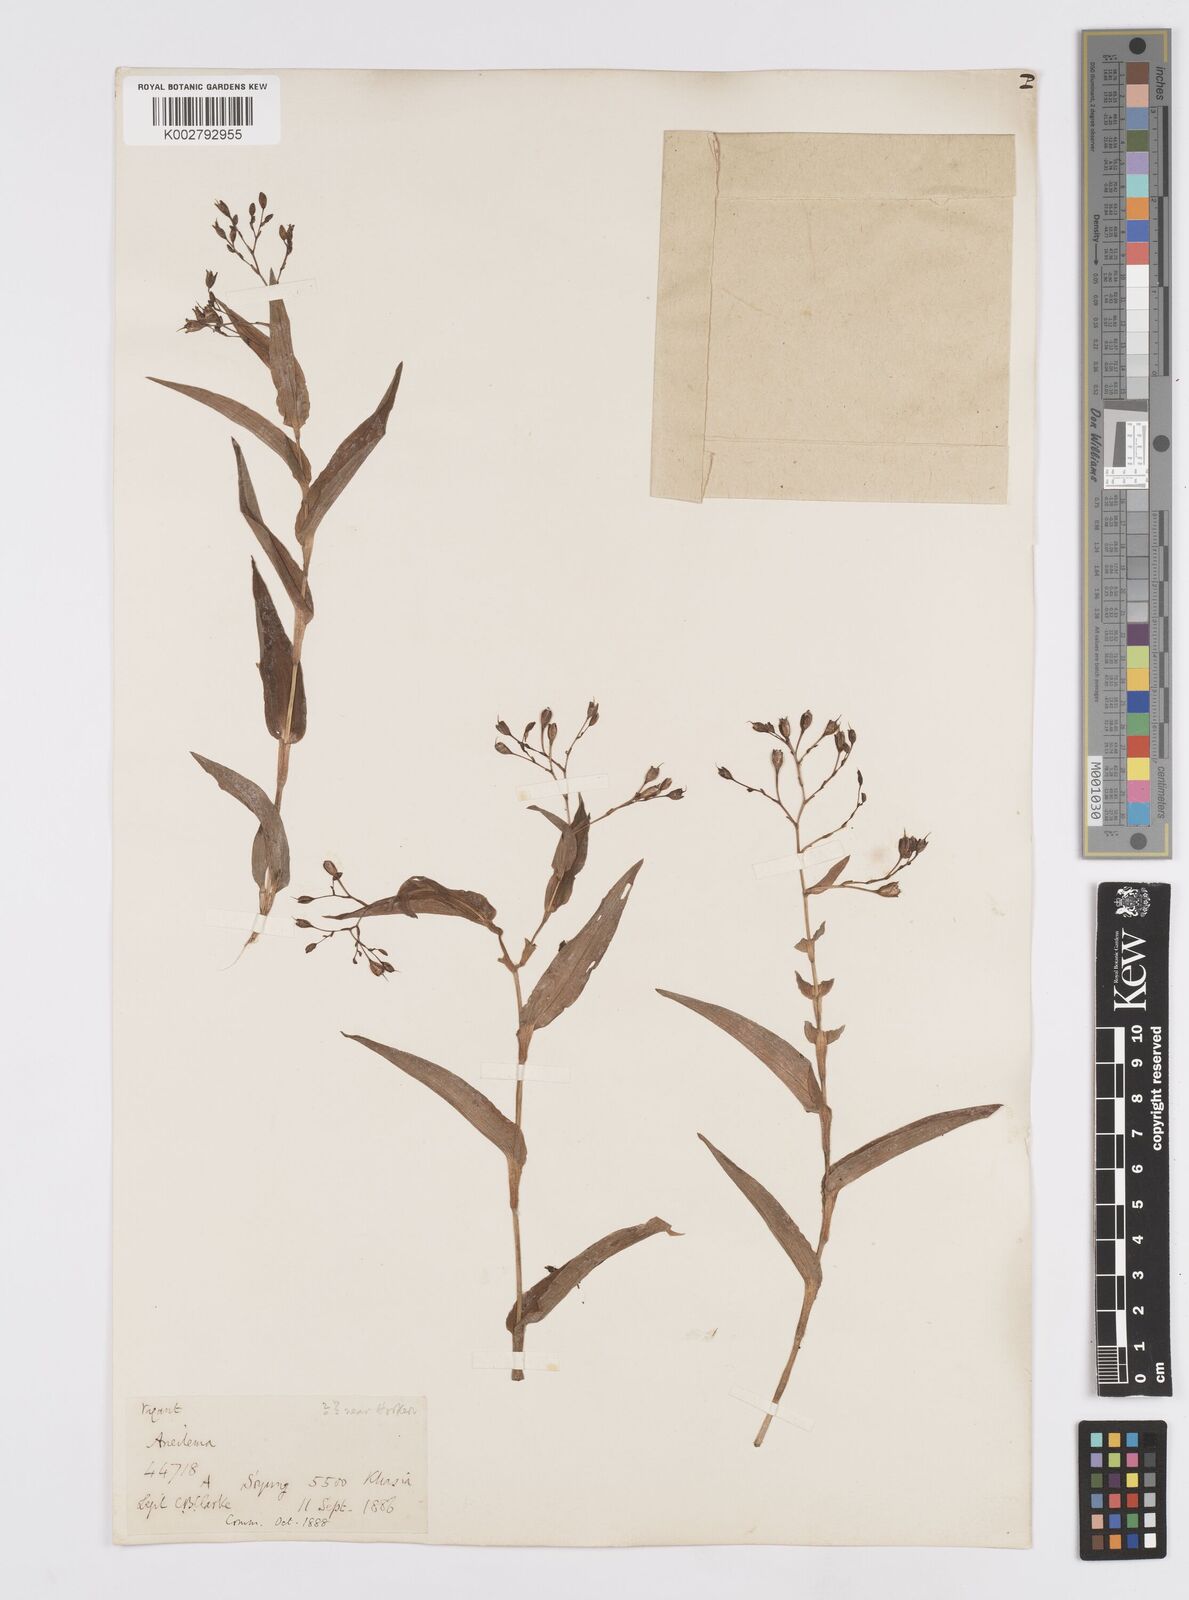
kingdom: Plantae
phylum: Tracheophyta
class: Liliopsida
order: Commelinales
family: Commelinaceae
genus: Murdannia
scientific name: Murdannia hookeri
